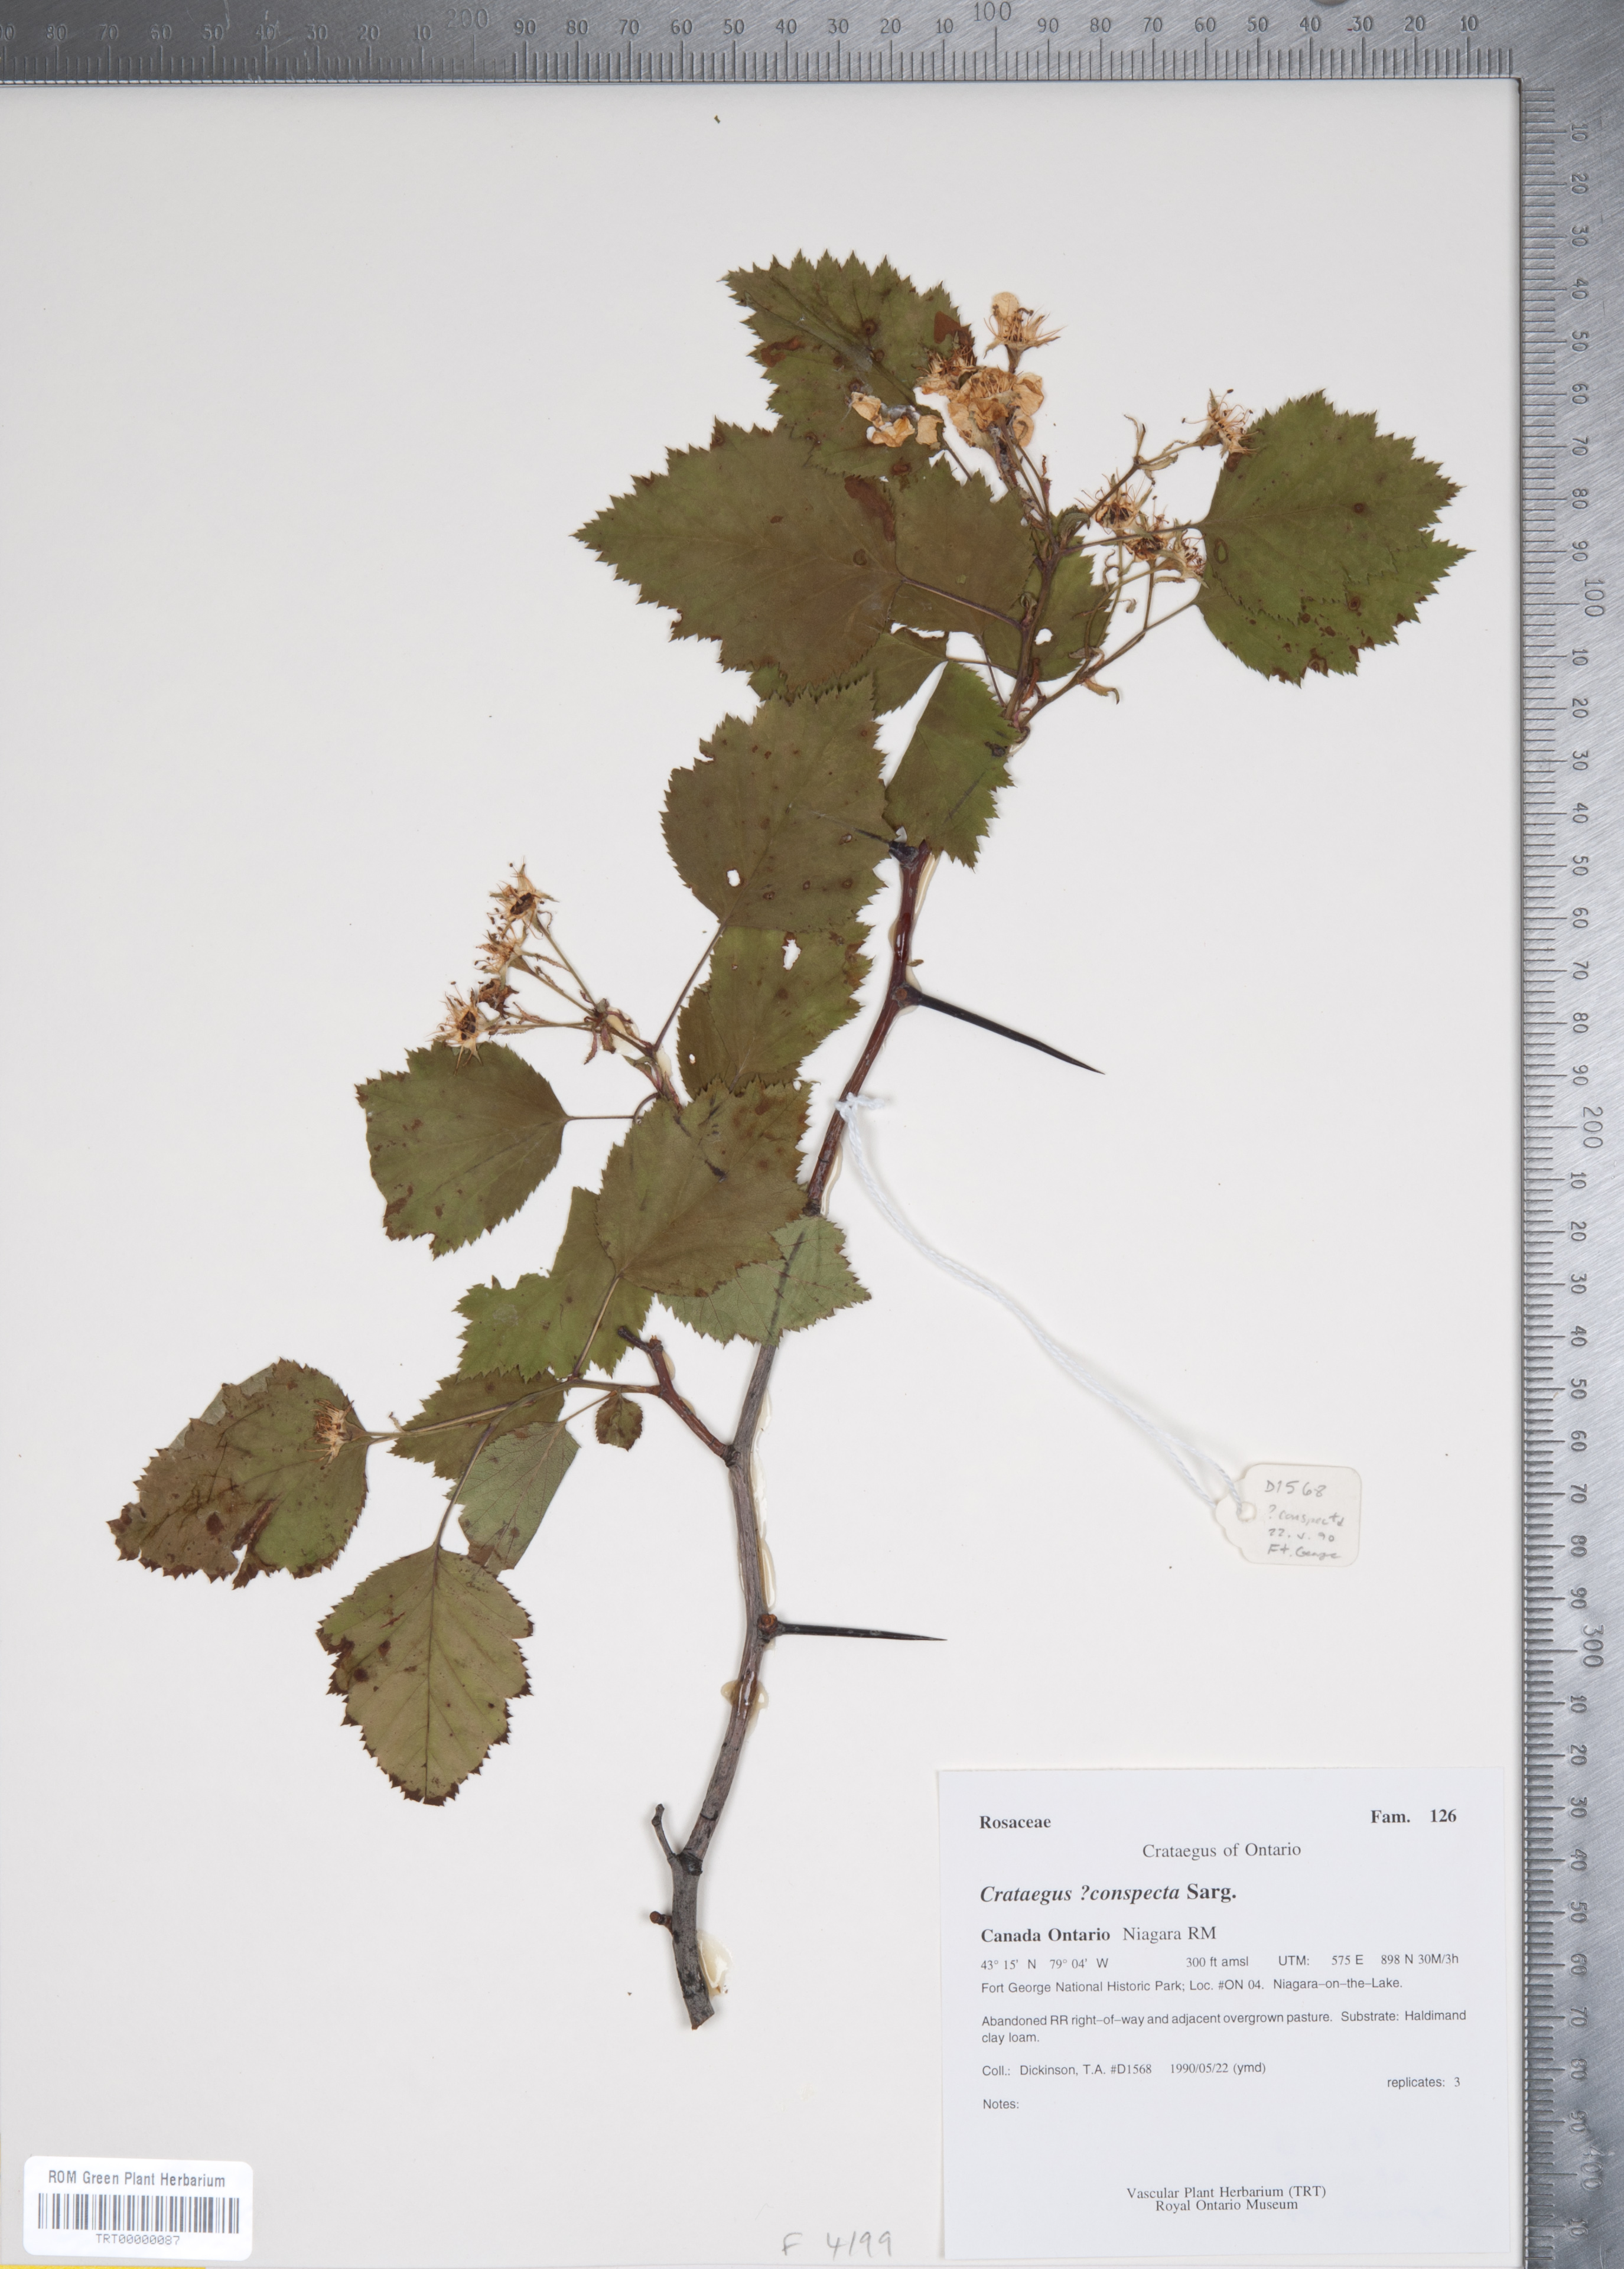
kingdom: Plantae
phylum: Tracheophyta
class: Magnoliopsida
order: Rosales
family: Rosaceae
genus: Crataegus
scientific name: Crataegus coccinioides
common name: Large-flowered cockspurthorn
